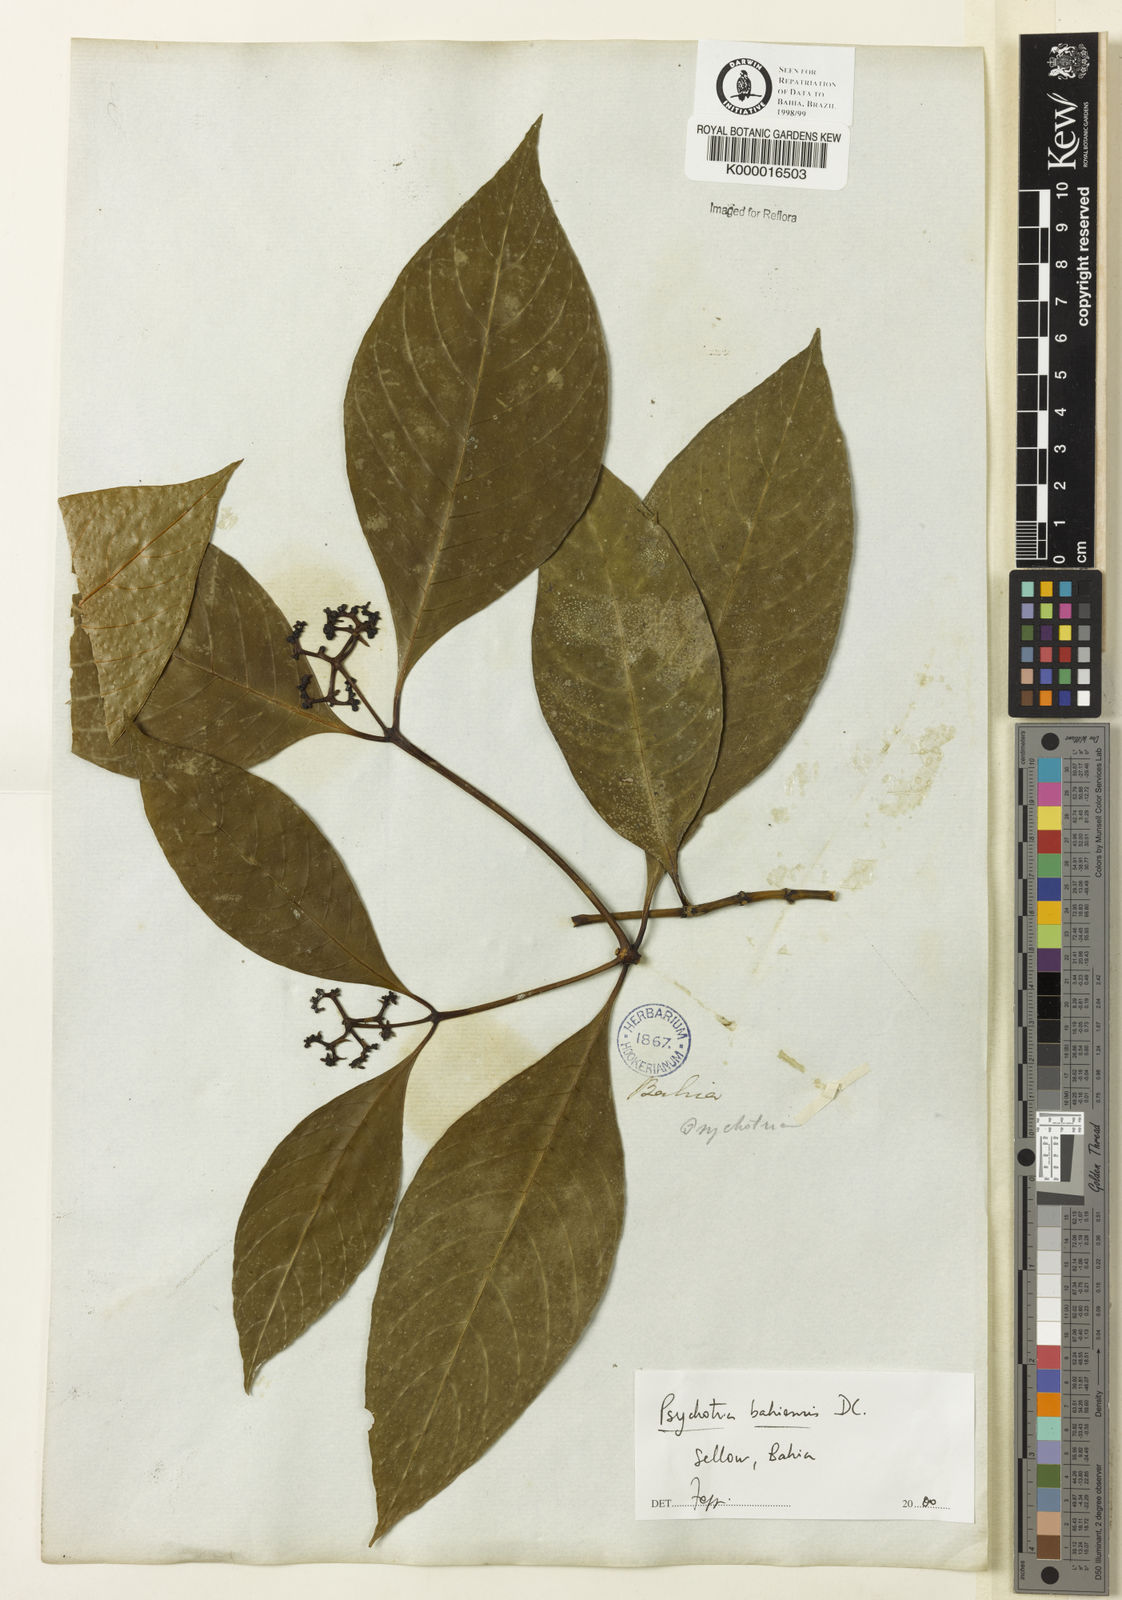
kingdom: Plantae
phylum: Tracheophyta
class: Magnoliopsida
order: Gentianales
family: Rubiaceae
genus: Psychotria
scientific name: Psychotria bahiensis
